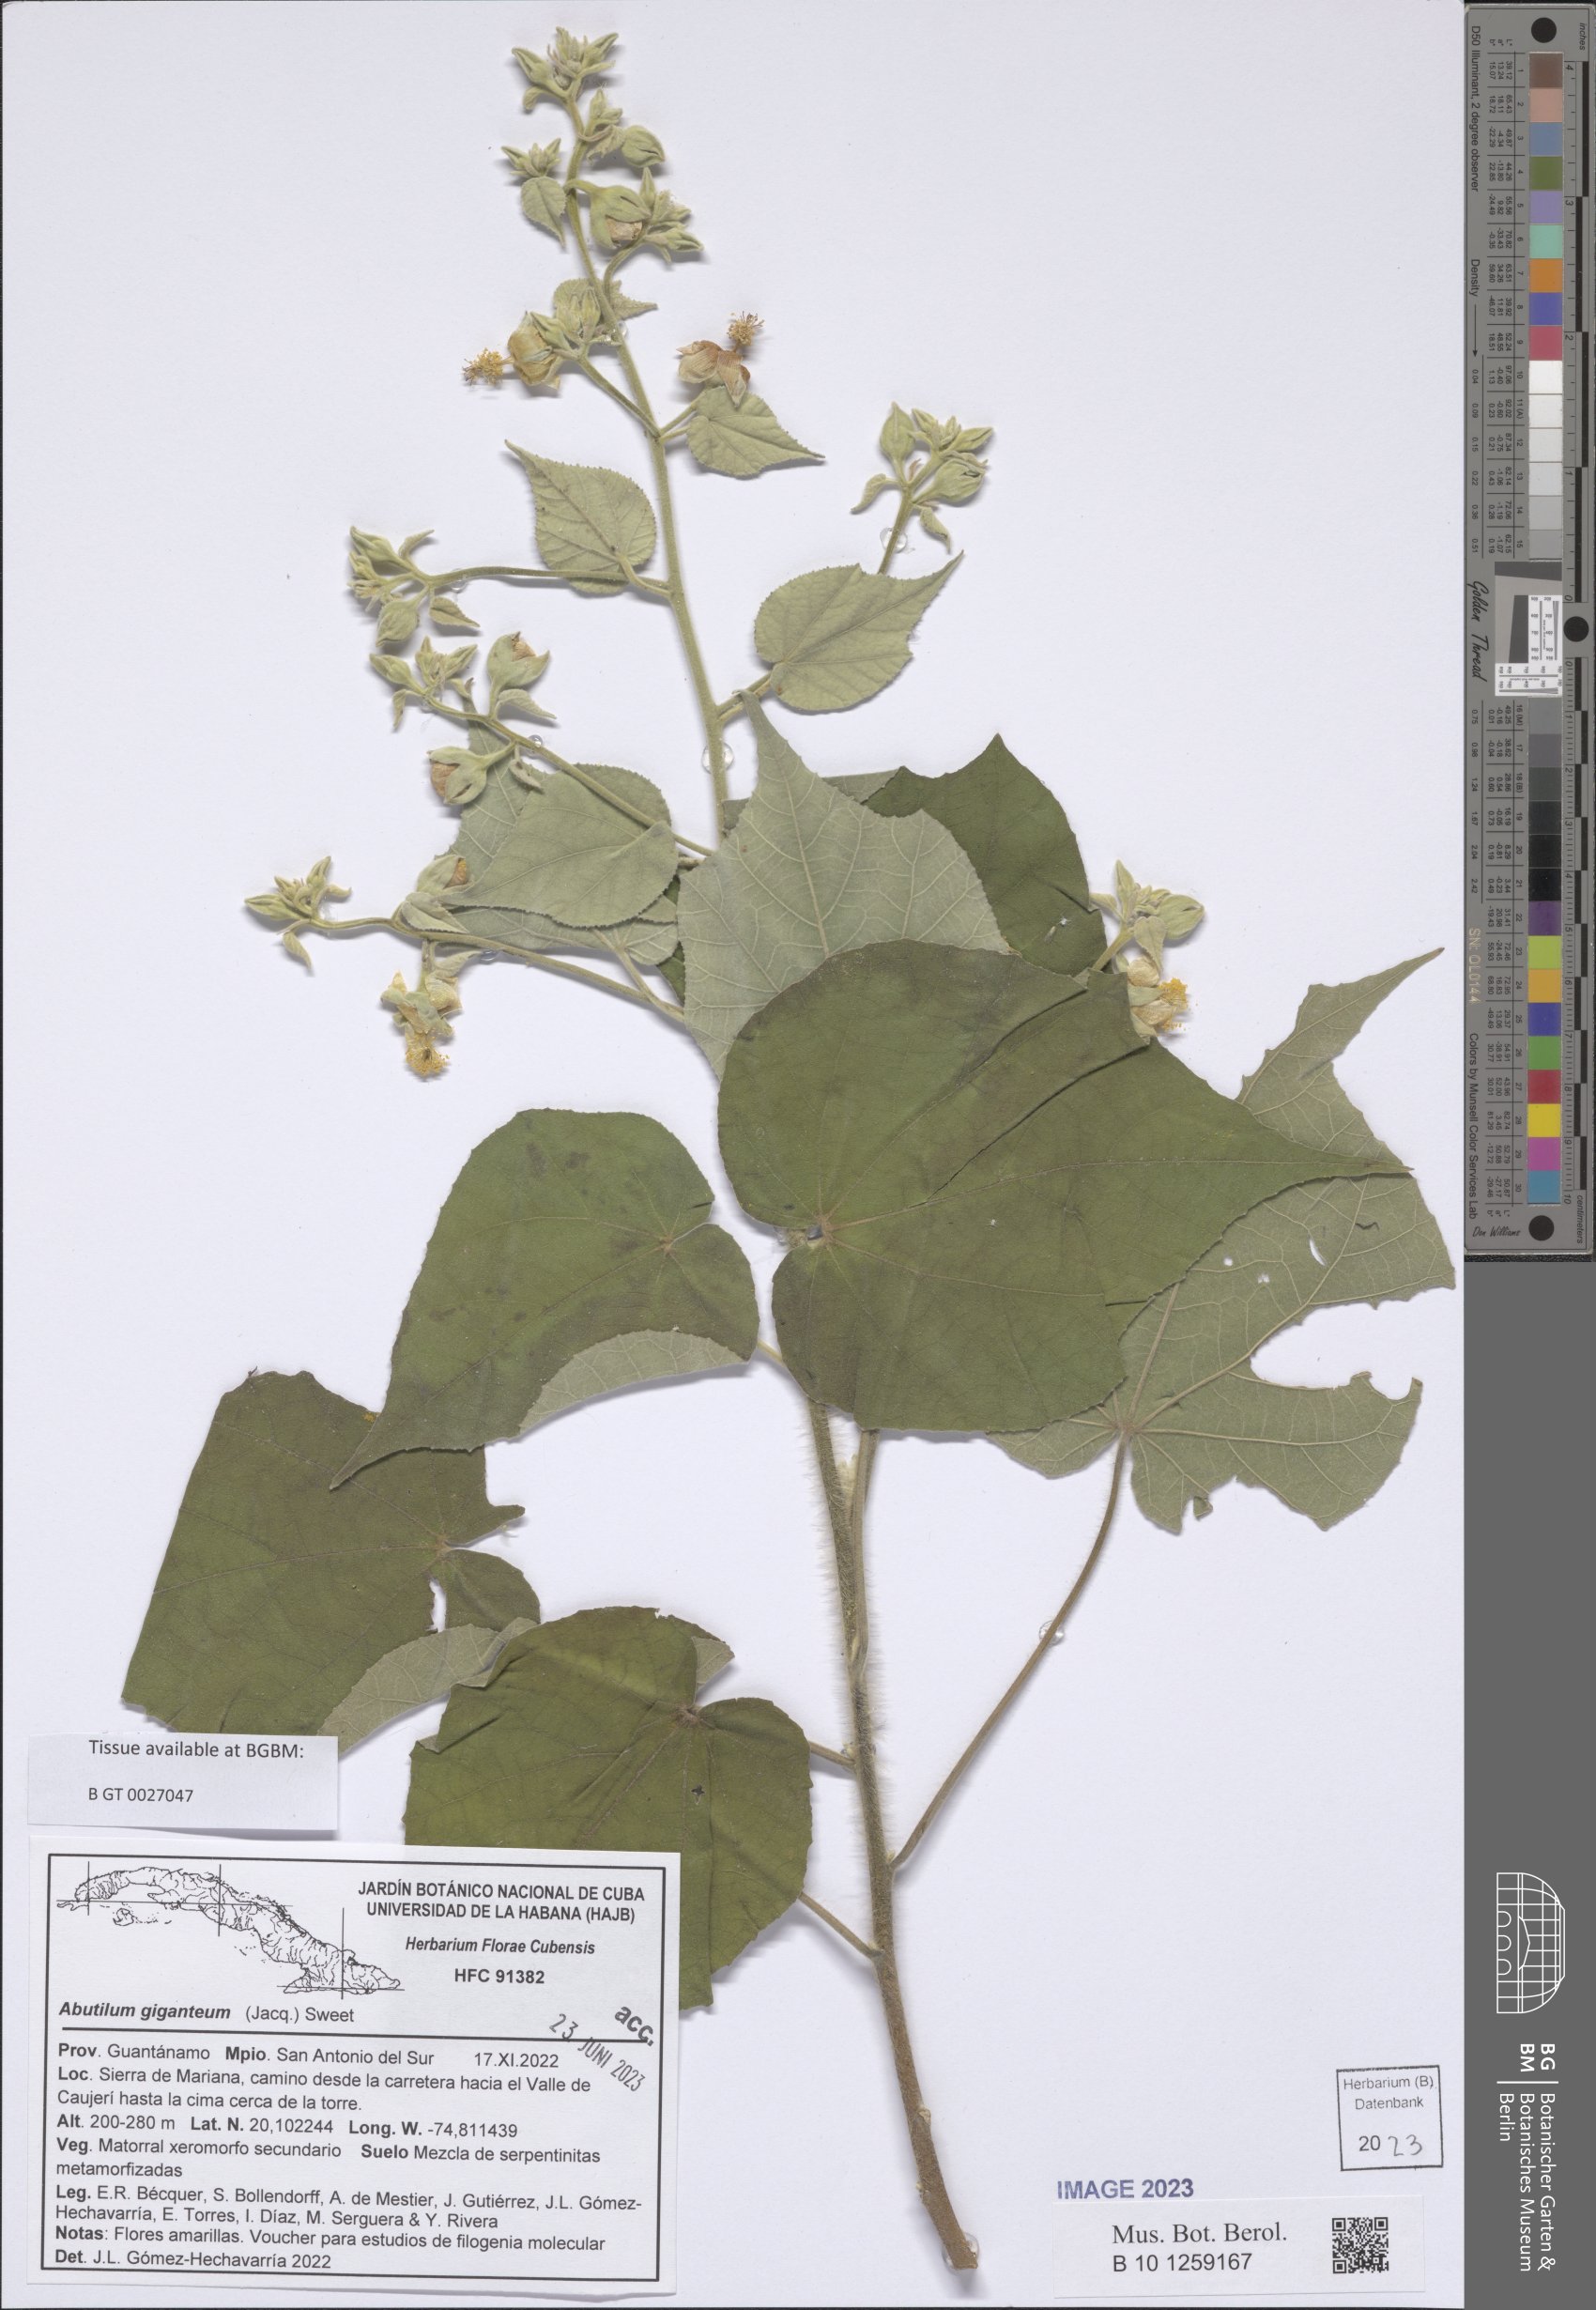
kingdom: Plantae
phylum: Tracheophyta
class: Magnoliopsida
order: Malvales
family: Malvaceae
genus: Abutilon
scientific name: Abutilon giganteum
